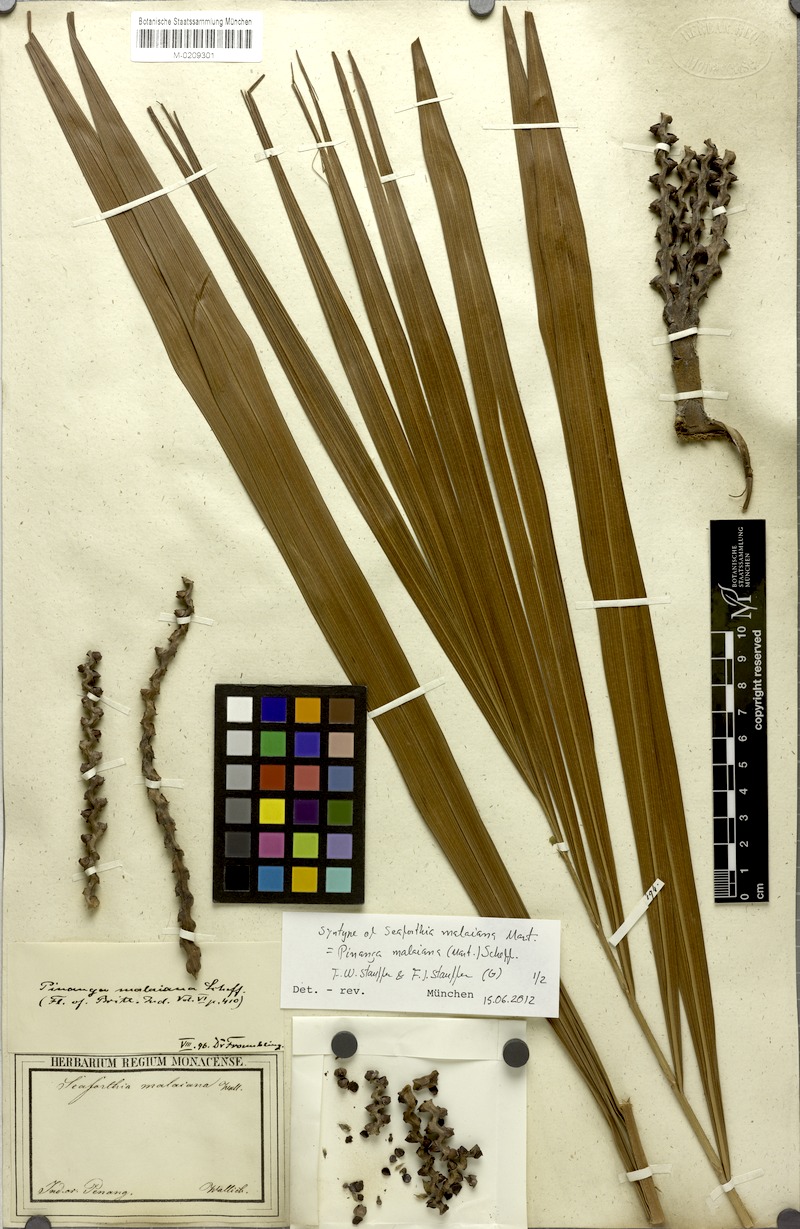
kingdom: Plantae
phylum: Tracheophyta
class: Liliopsida
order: Arecales
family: Arecaceae
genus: Pinanga
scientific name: Pinanga malaiana
